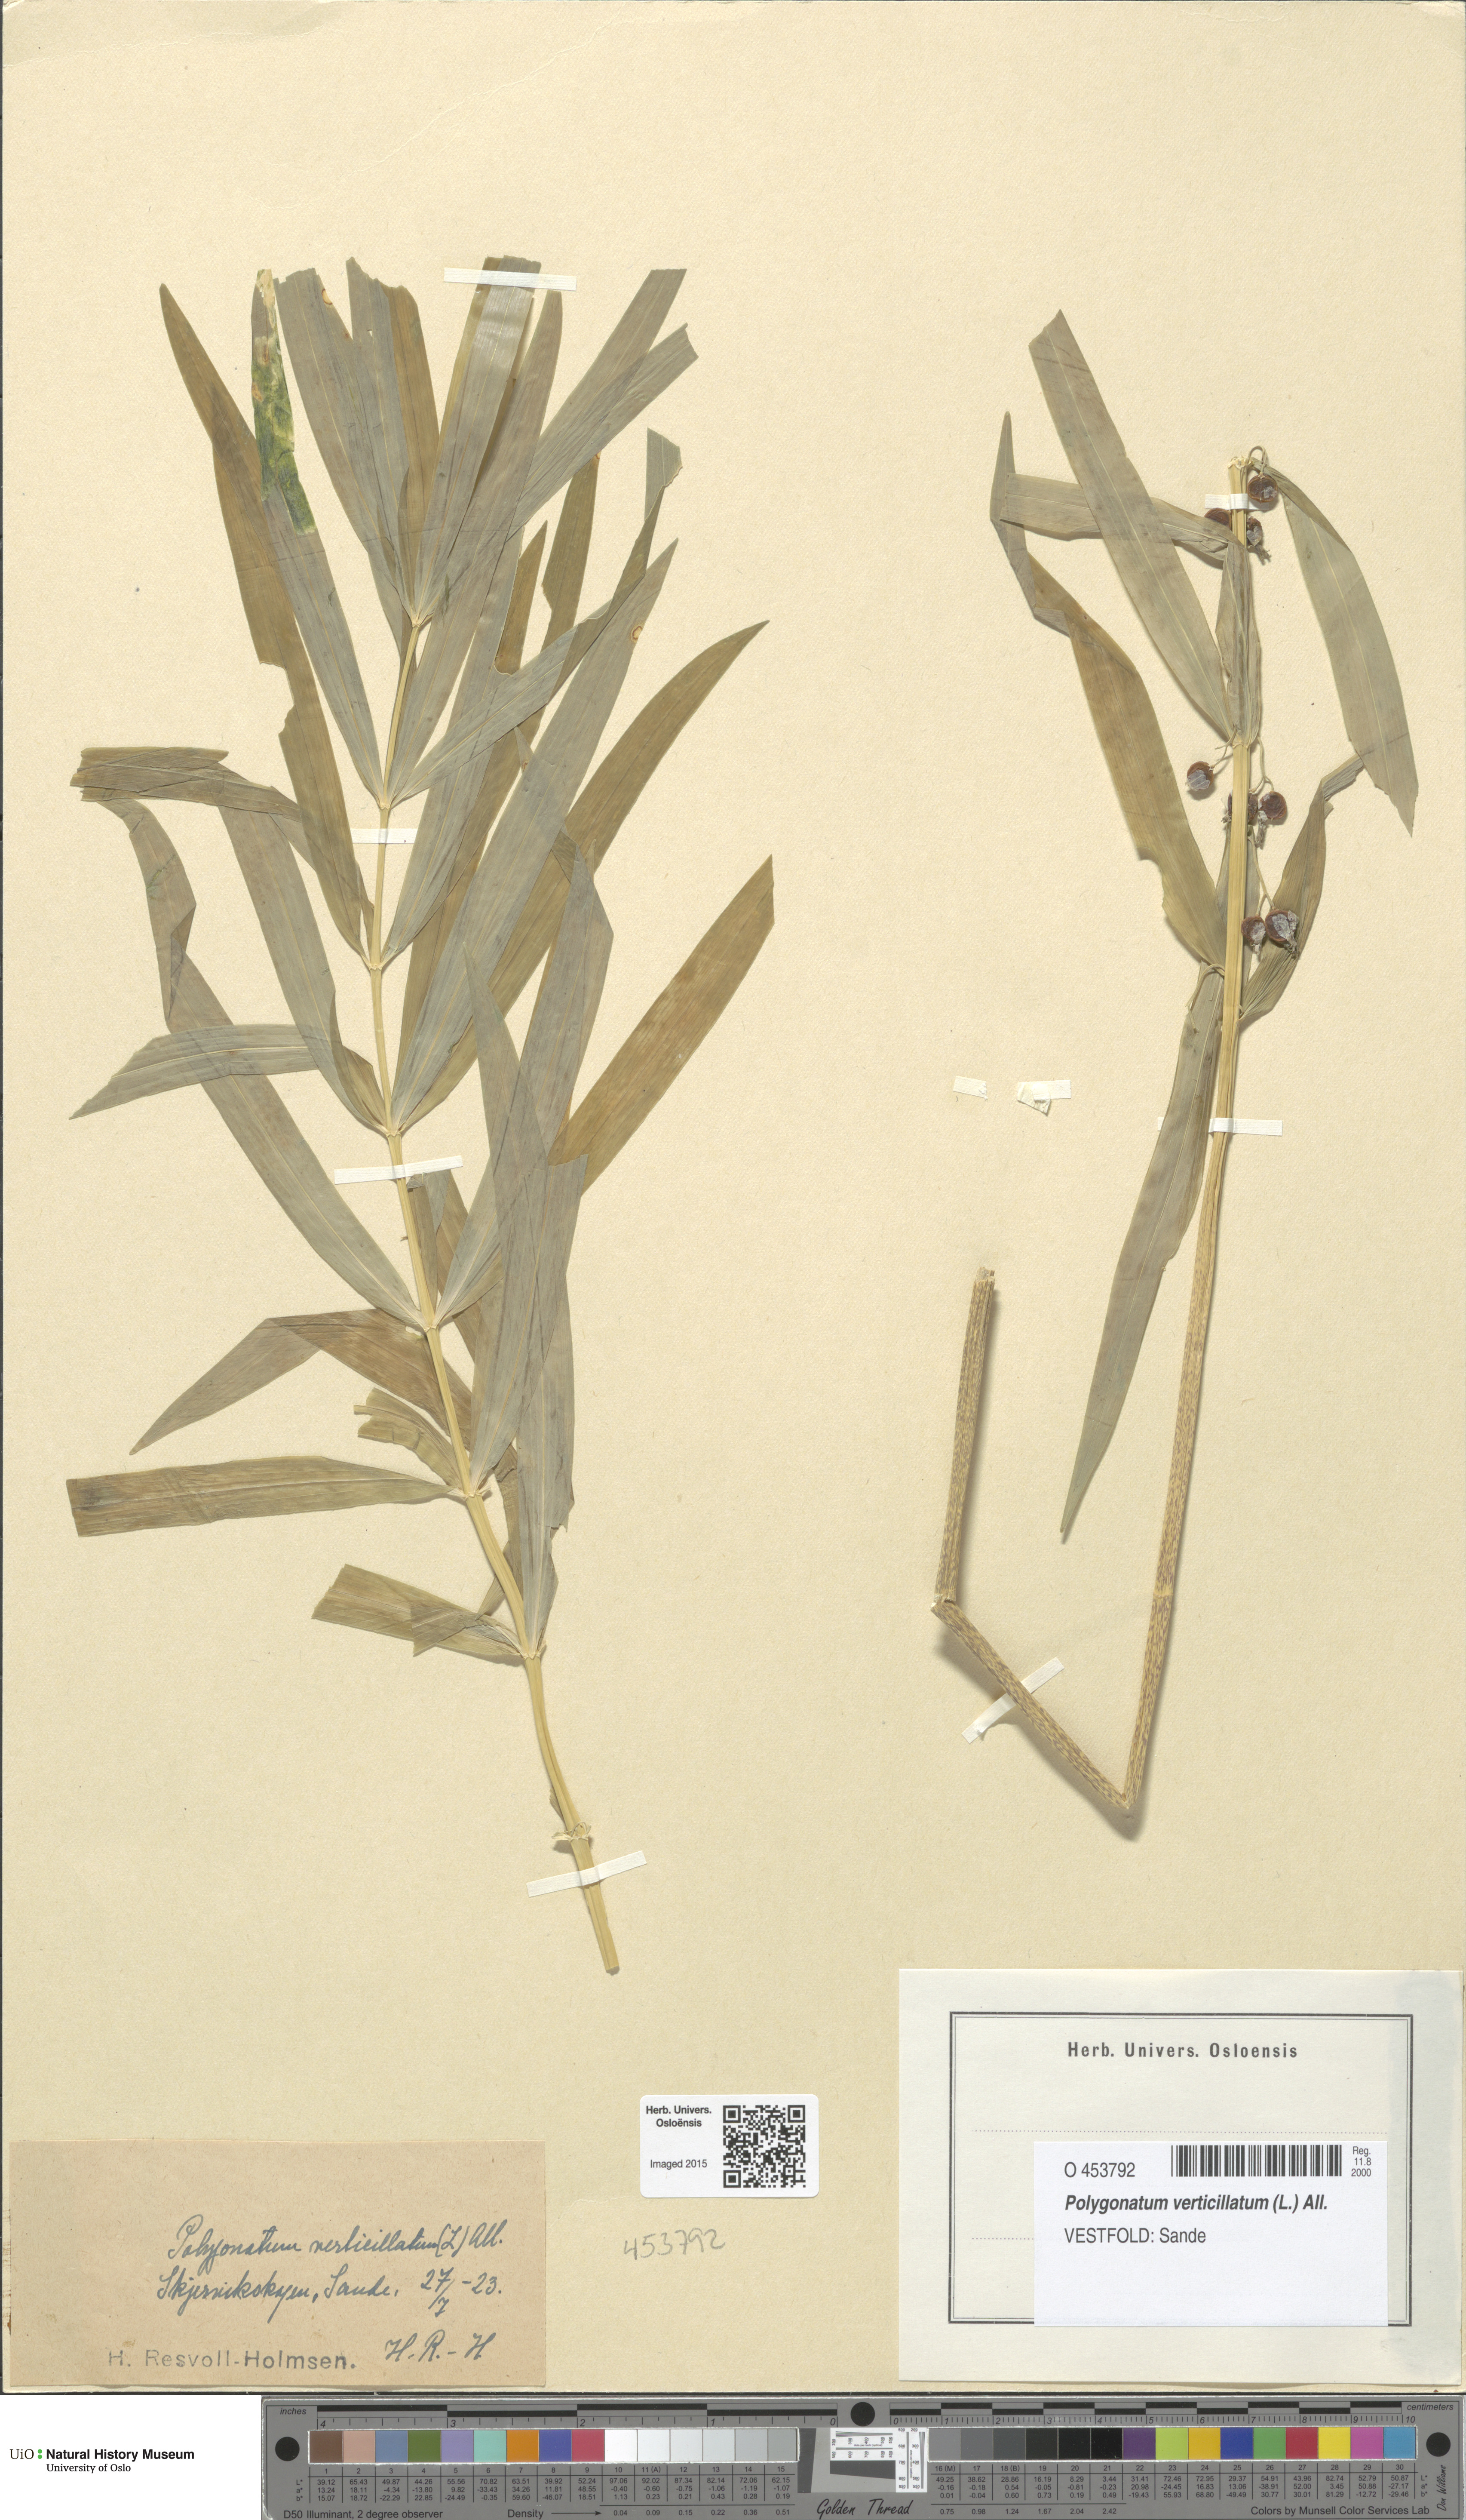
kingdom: Plantae
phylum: Tracheophyta
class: Liliopsida
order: Asparagales
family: Asparagaceae
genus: Polygonatum
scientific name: Polygonatum verticillatum
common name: Whorled solomon's-seal
